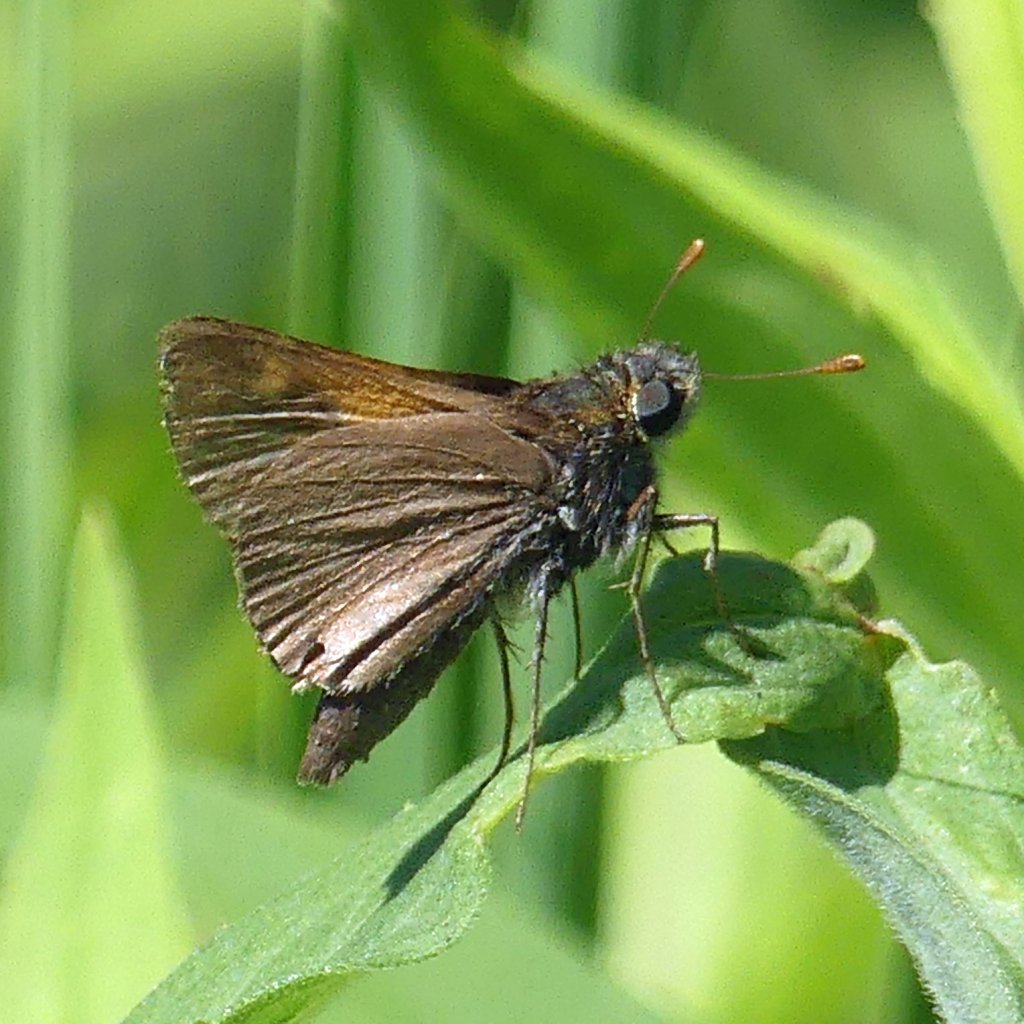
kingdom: Animalia
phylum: Arthropoda
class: Insecta
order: Lepidoptera
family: Hesperiidae
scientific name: Hesperiidae
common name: Skippers
